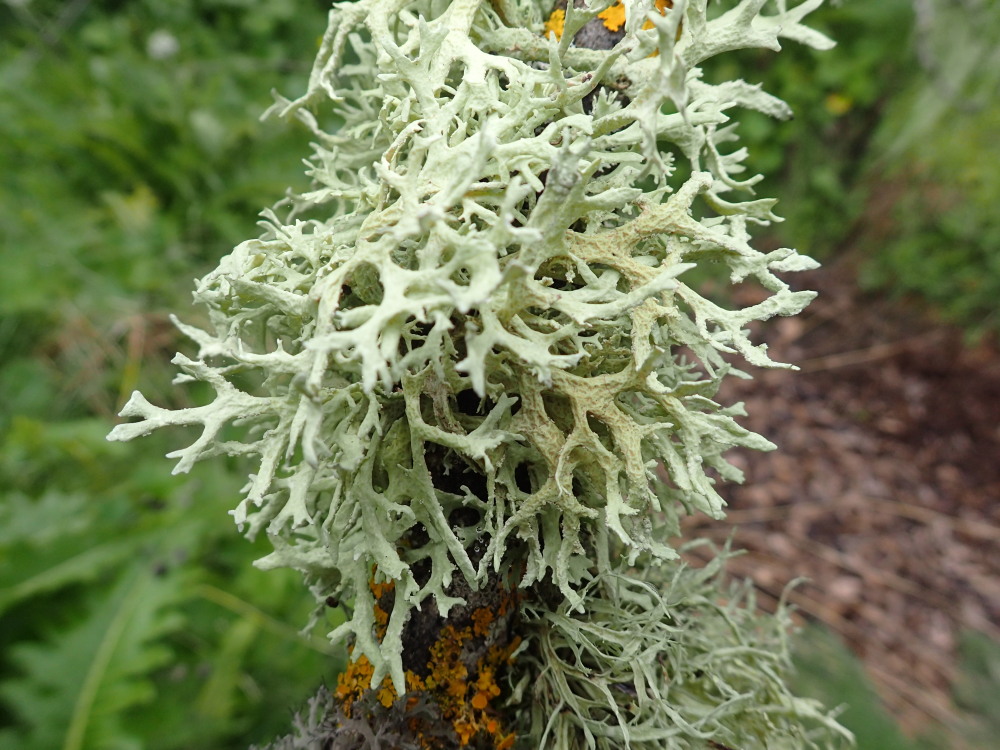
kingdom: Fungi
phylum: Ascomycota
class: Lecanoromycetes
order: Lecanorales
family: Parmeliaceae
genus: Evernia
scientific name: Evernia prunastri
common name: almindelig slåenlav
